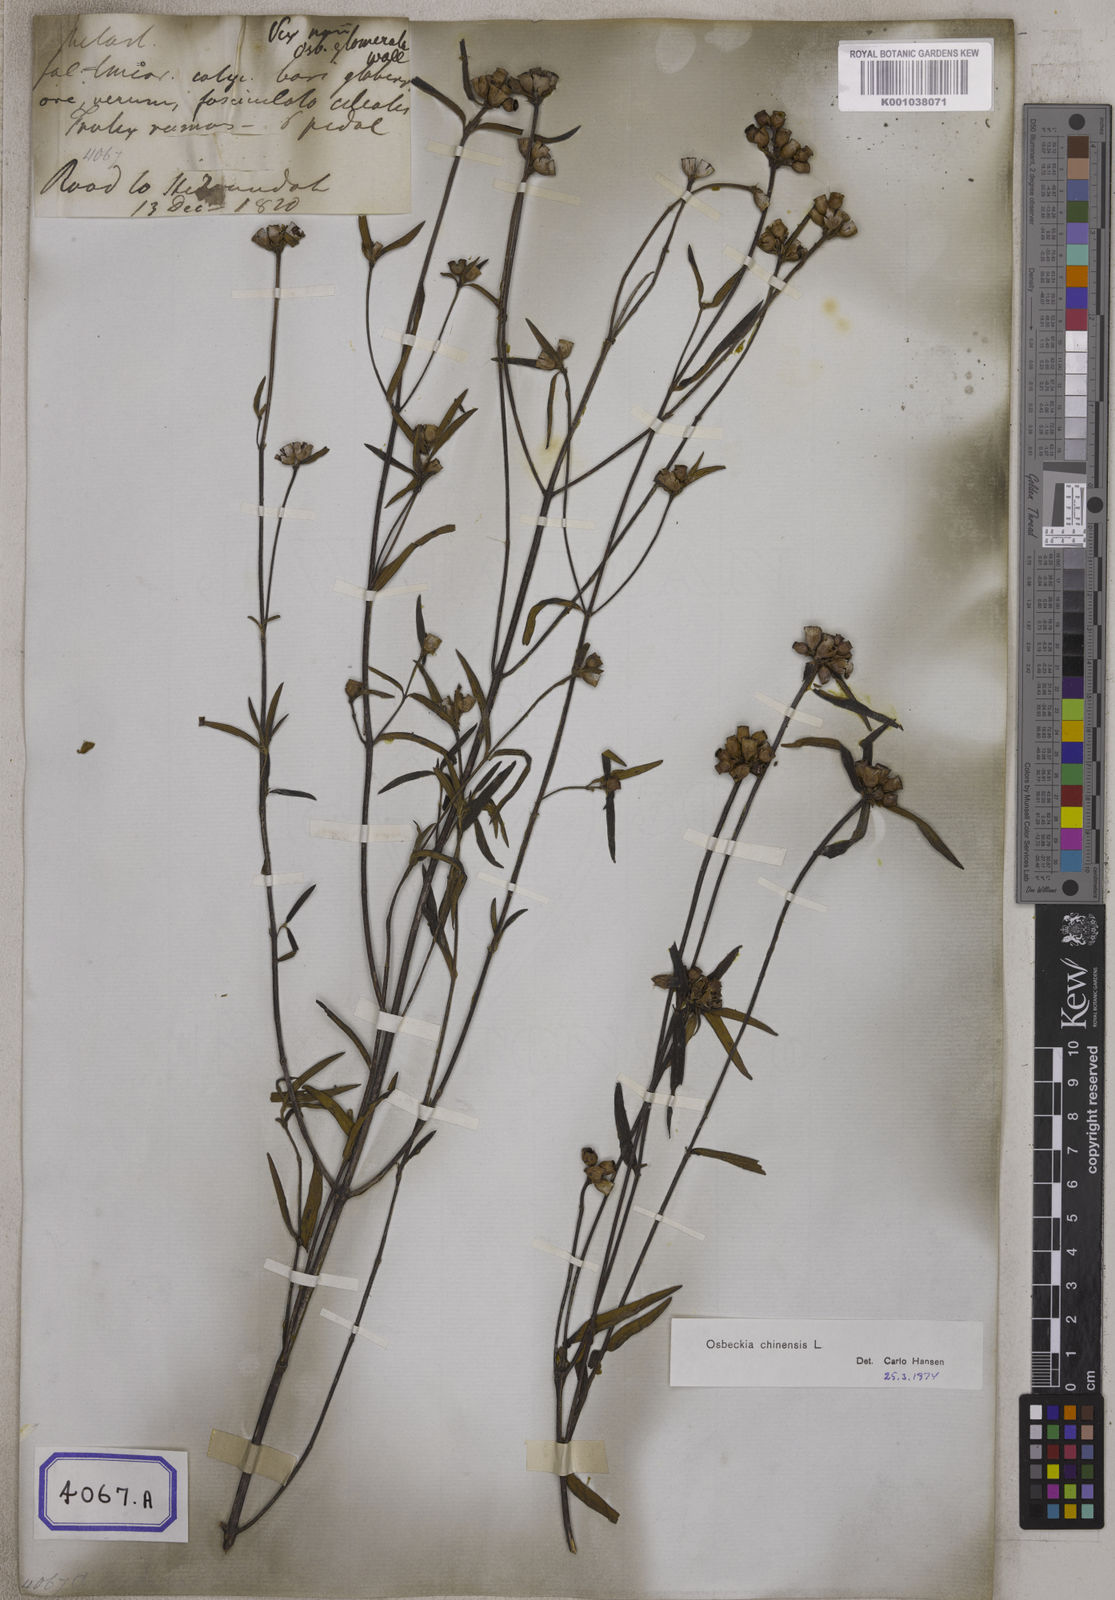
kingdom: Plantae
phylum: Tracheophyta
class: Magnoliopsida
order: Myrtales
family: Melastomataceae
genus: Osbeckia
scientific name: Osbeckia chinensis
